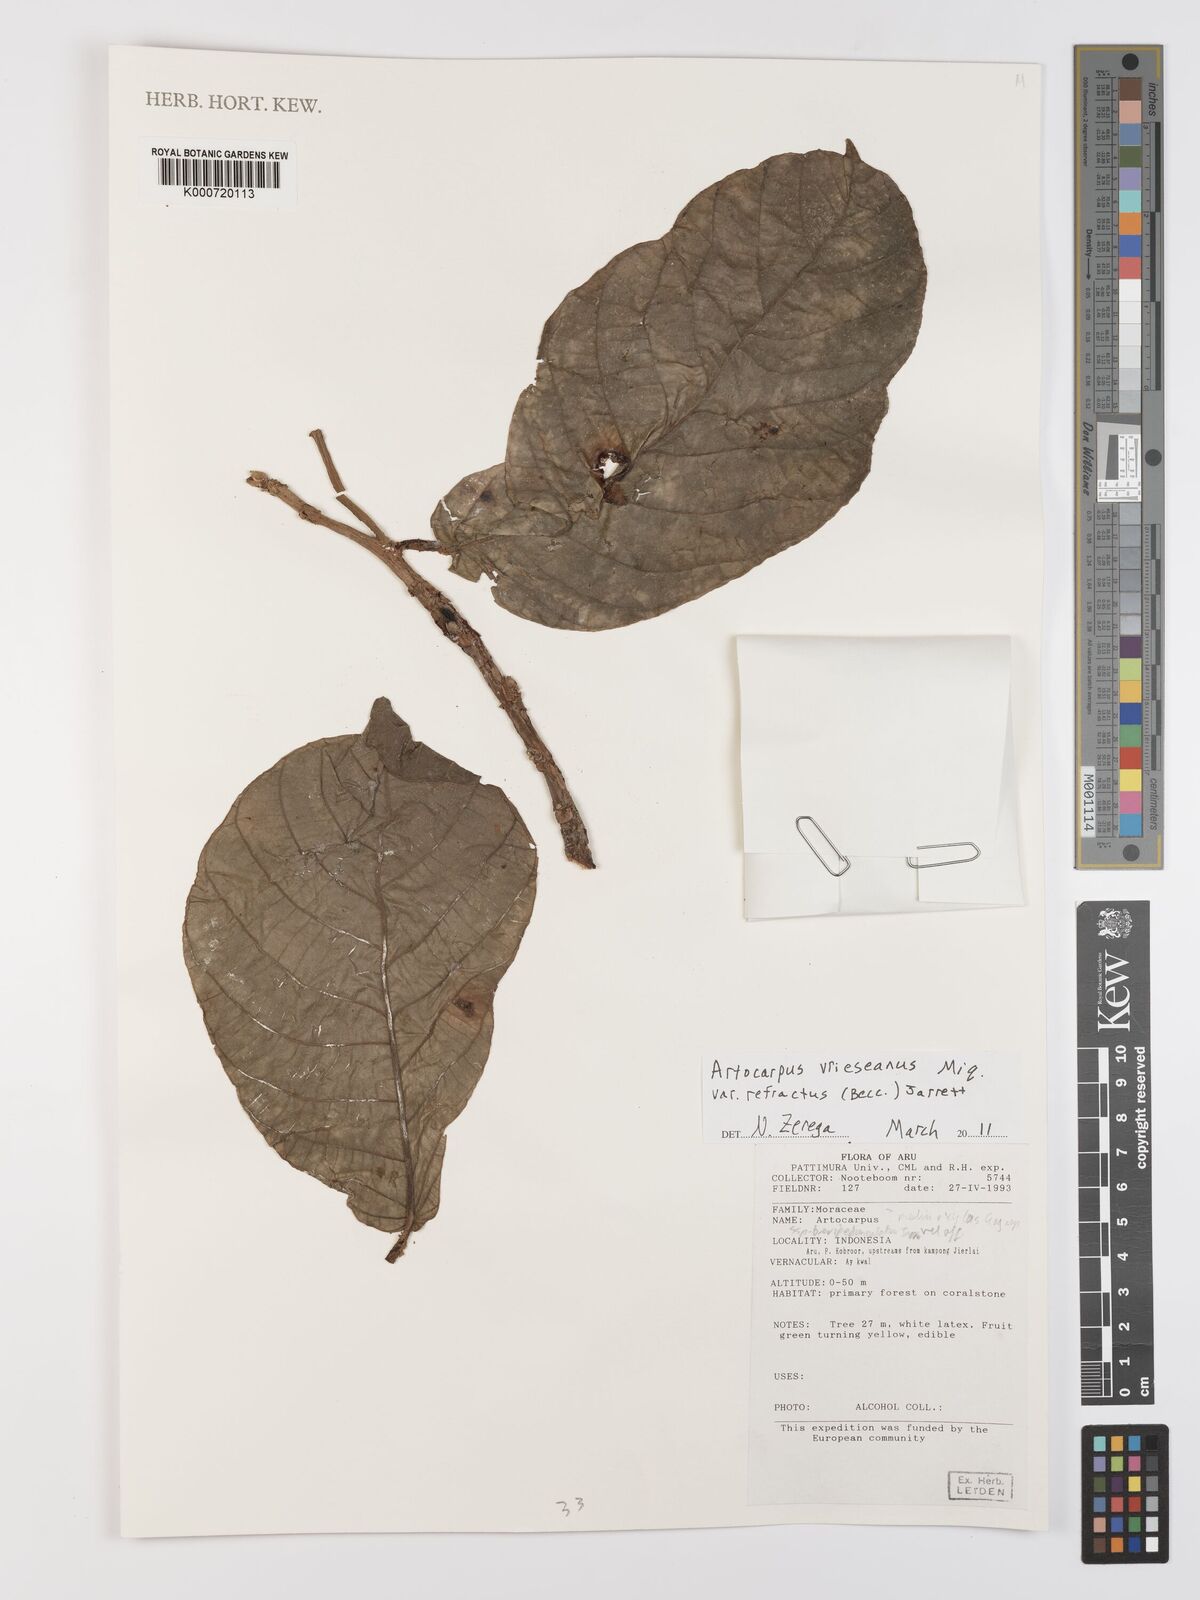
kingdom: Plantae
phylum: Tracheophyta
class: Magnoliopsida
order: Rosales
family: Moraceae
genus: Artocarpus
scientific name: Artocarpus vrieseanus
